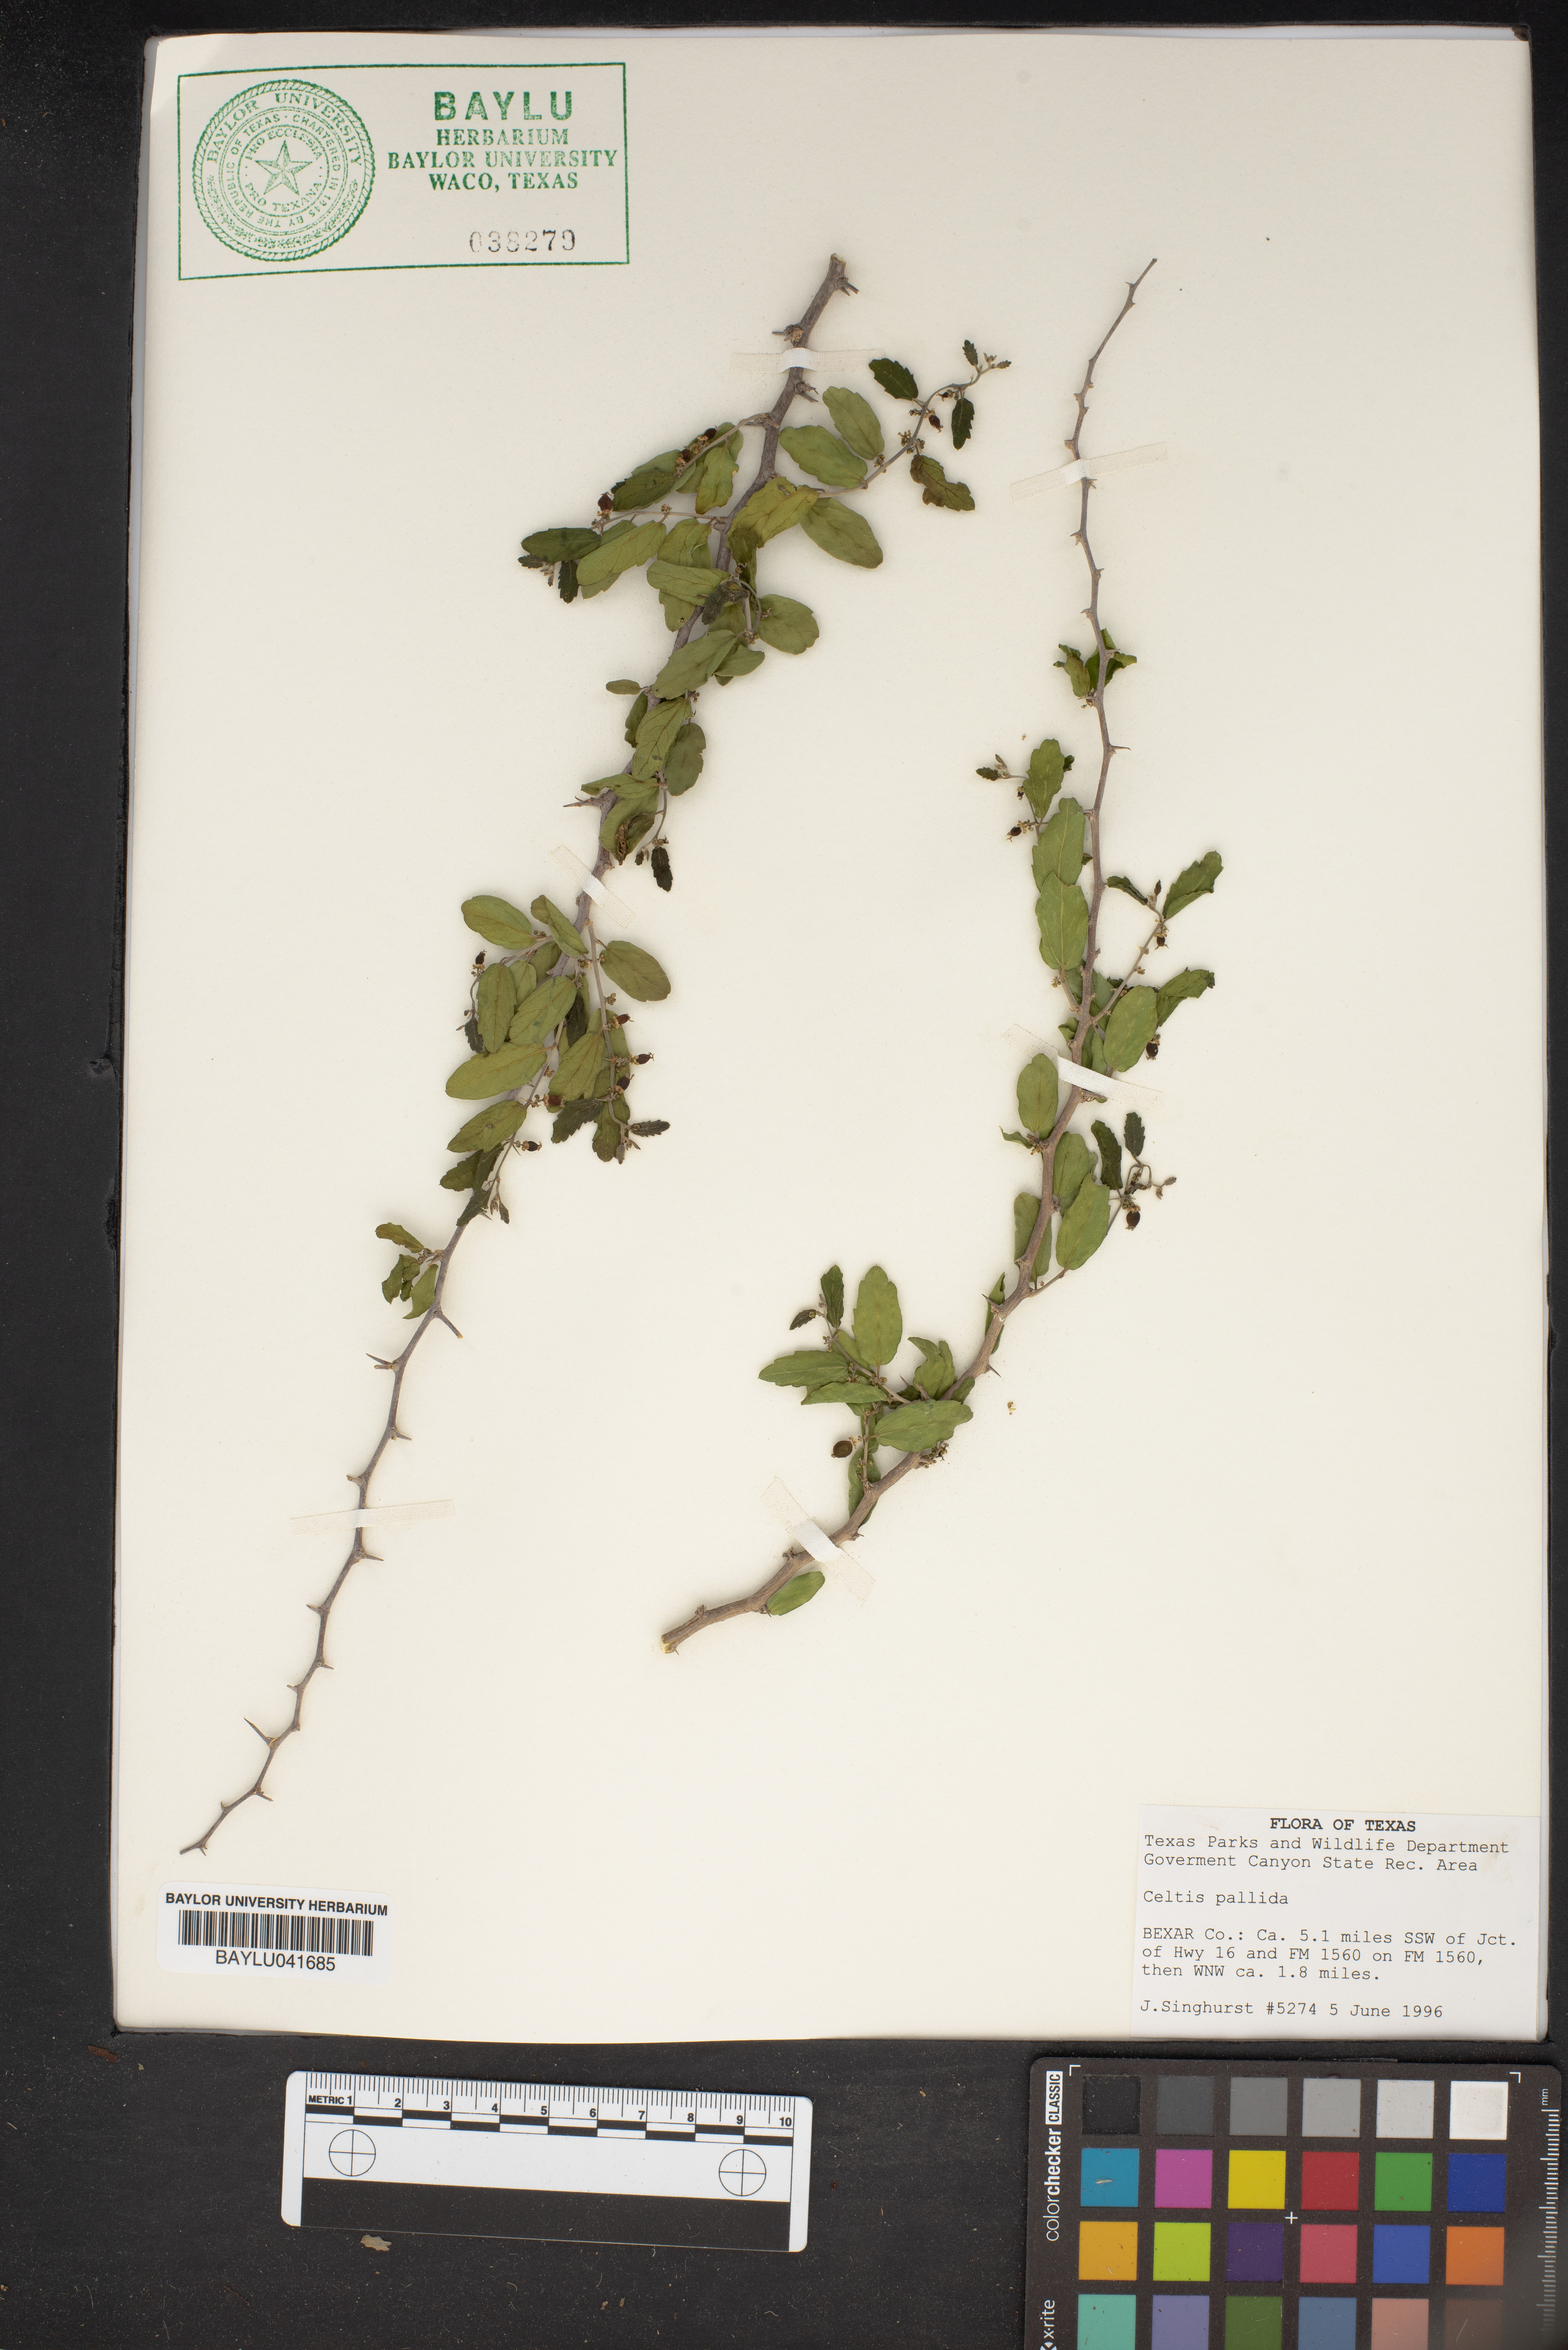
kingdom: Plantae
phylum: Tracheophyta
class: Magnoliopsida
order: Rosales
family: Cannabaceae
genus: Celtis
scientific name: Celtis pallida
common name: Desert hackberry
